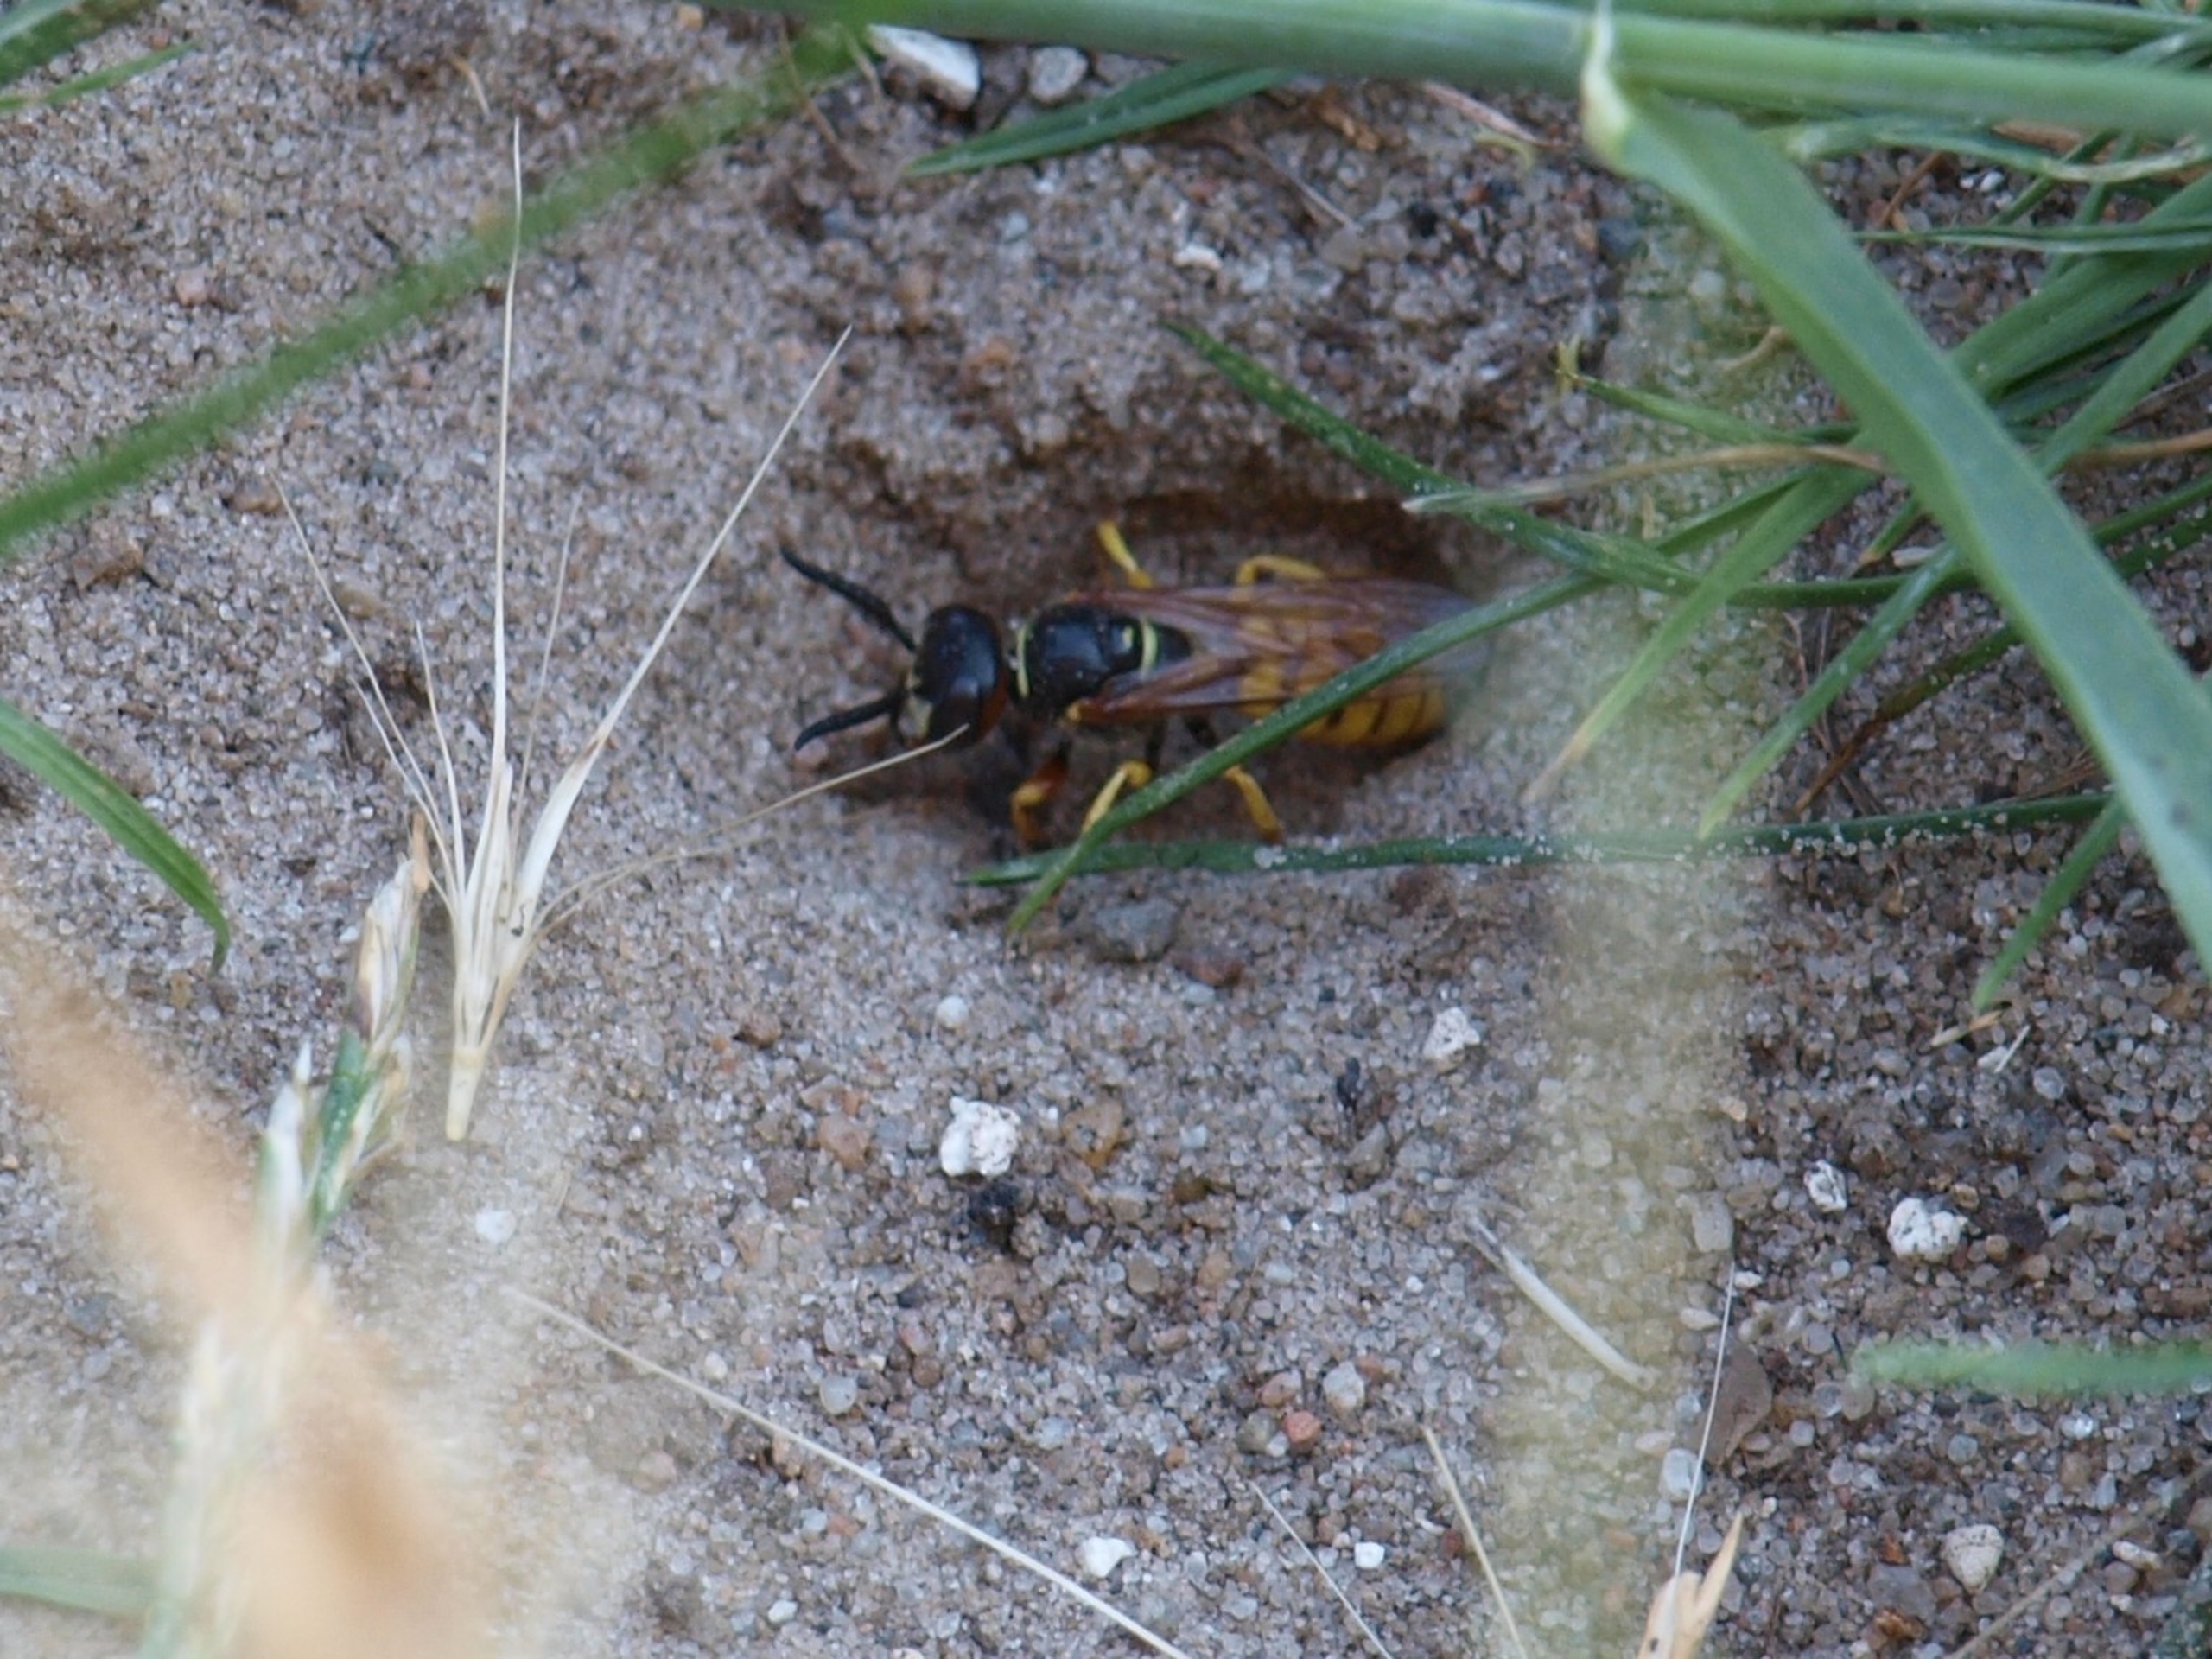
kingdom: Animalia
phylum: Arthropoda
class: Insecta
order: Hymenoptera
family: Crabronidae
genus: Philanthus
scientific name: Philanthus triangulum
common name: Biulv
